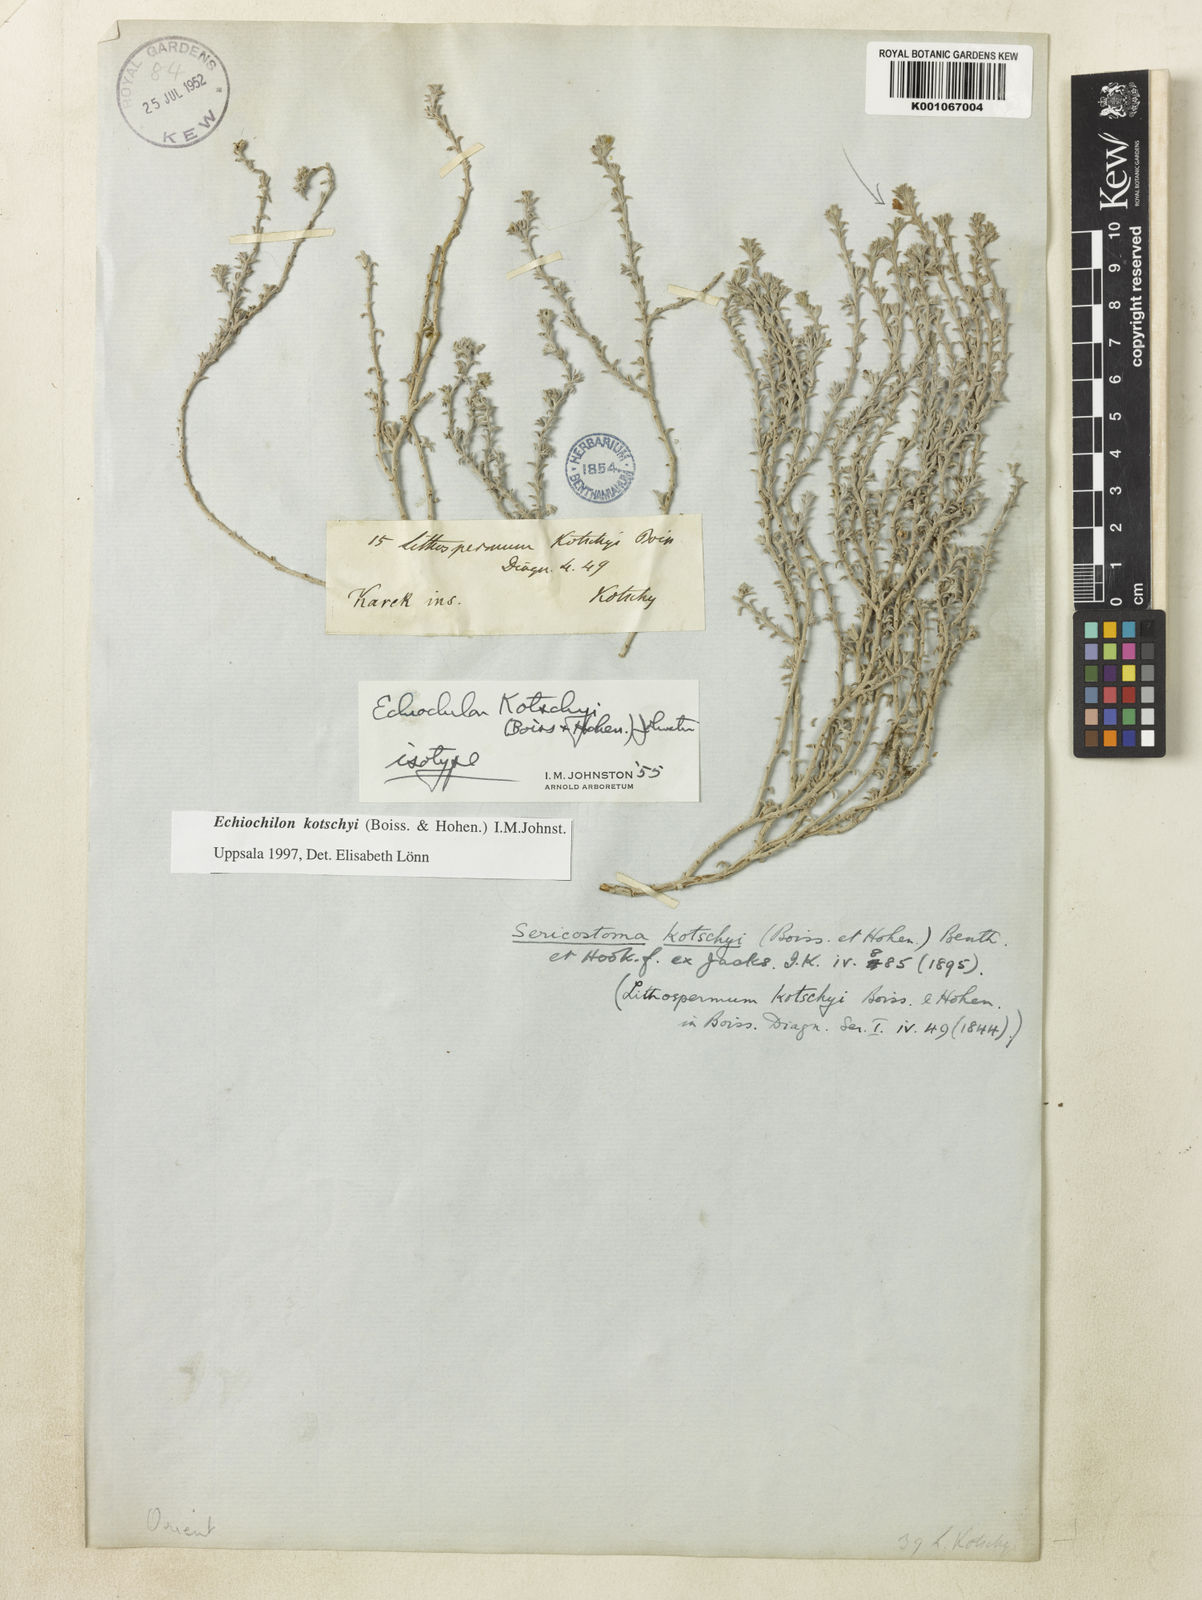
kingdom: Plantae
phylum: Tracheophyta
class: Magnoliopsida
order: Boraginales
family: Boraginaceae
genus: Echiochilon
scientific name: Echiochilon kotschyi
